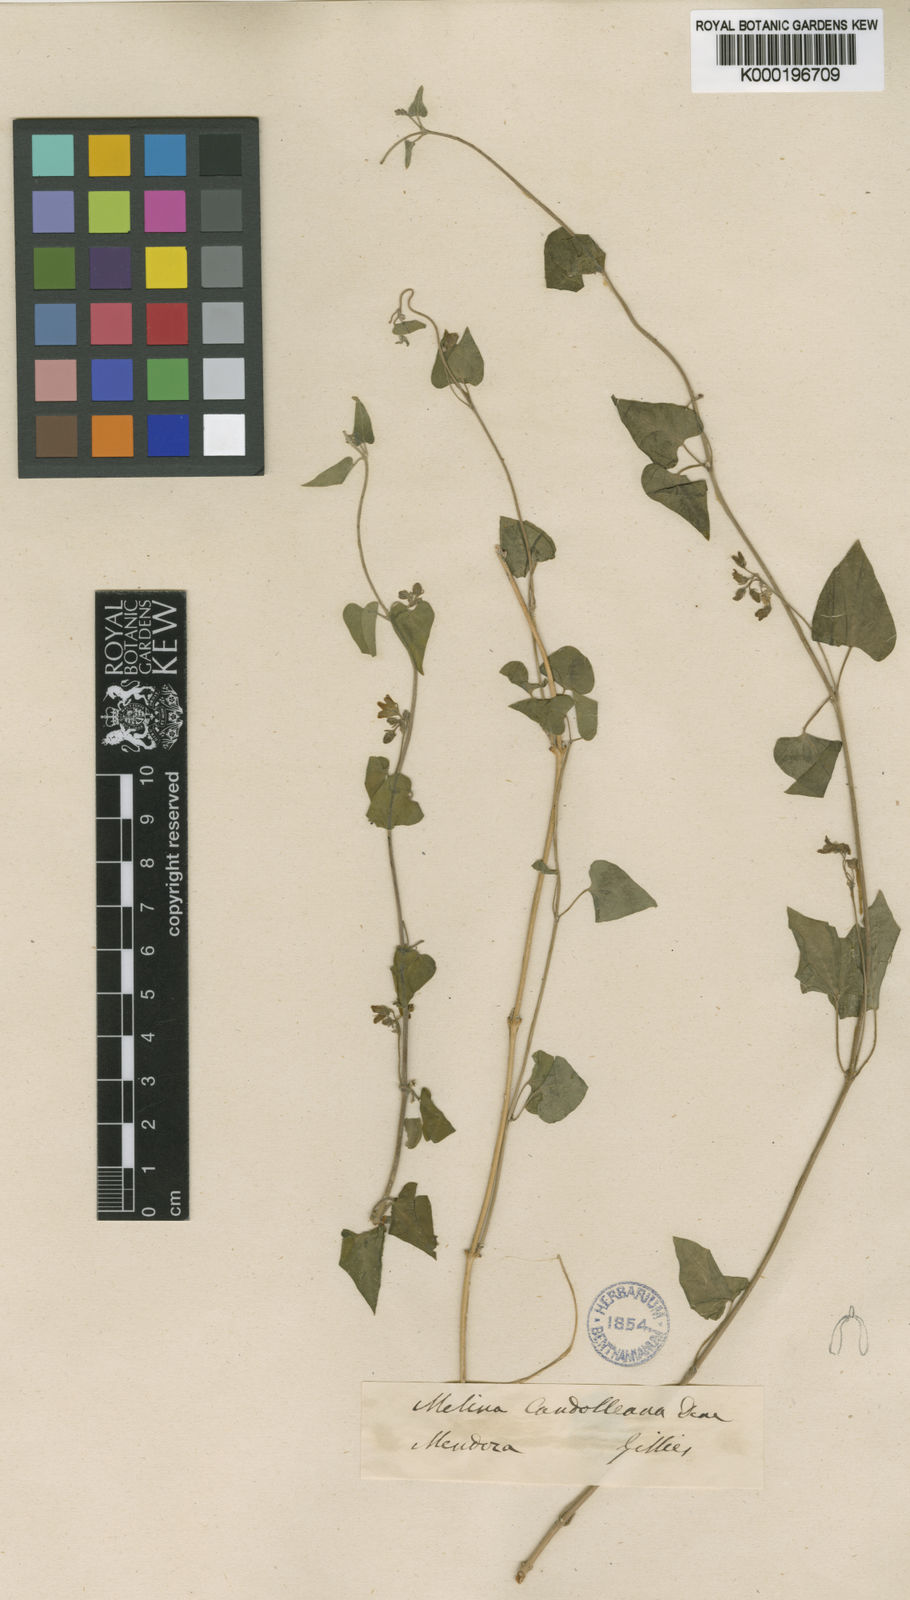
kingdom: Plantae
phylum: Tracheophyta
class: Magnoliopsida
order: Gentianales
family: Apocynaceae
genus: Philibertia
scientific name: Philibertia candolleana
